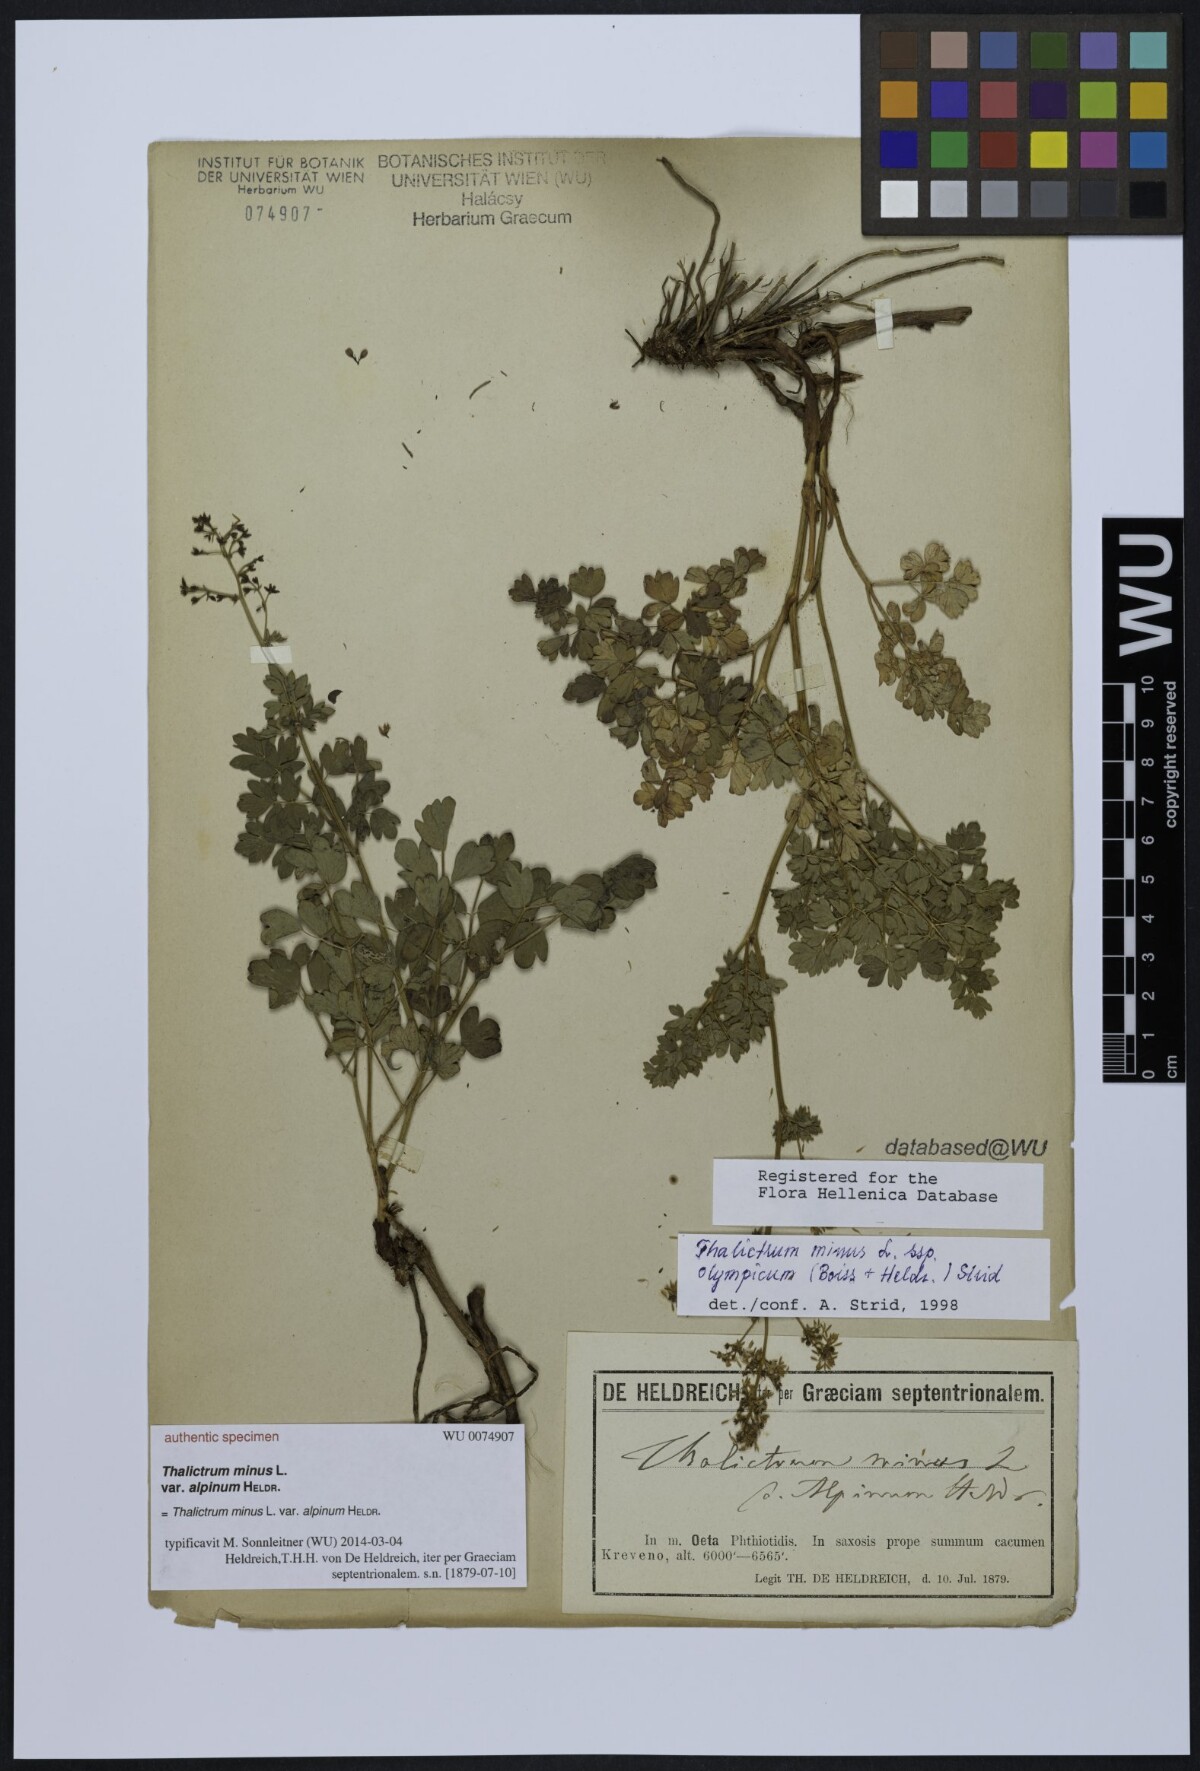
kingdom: Plantae
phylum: Tracheophyta
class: Magnoliopsida
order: Ranunculales
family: Ranunculaceae
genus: Thalictrum
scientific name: Thalictrum minus
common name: Lesser meadow-rue
